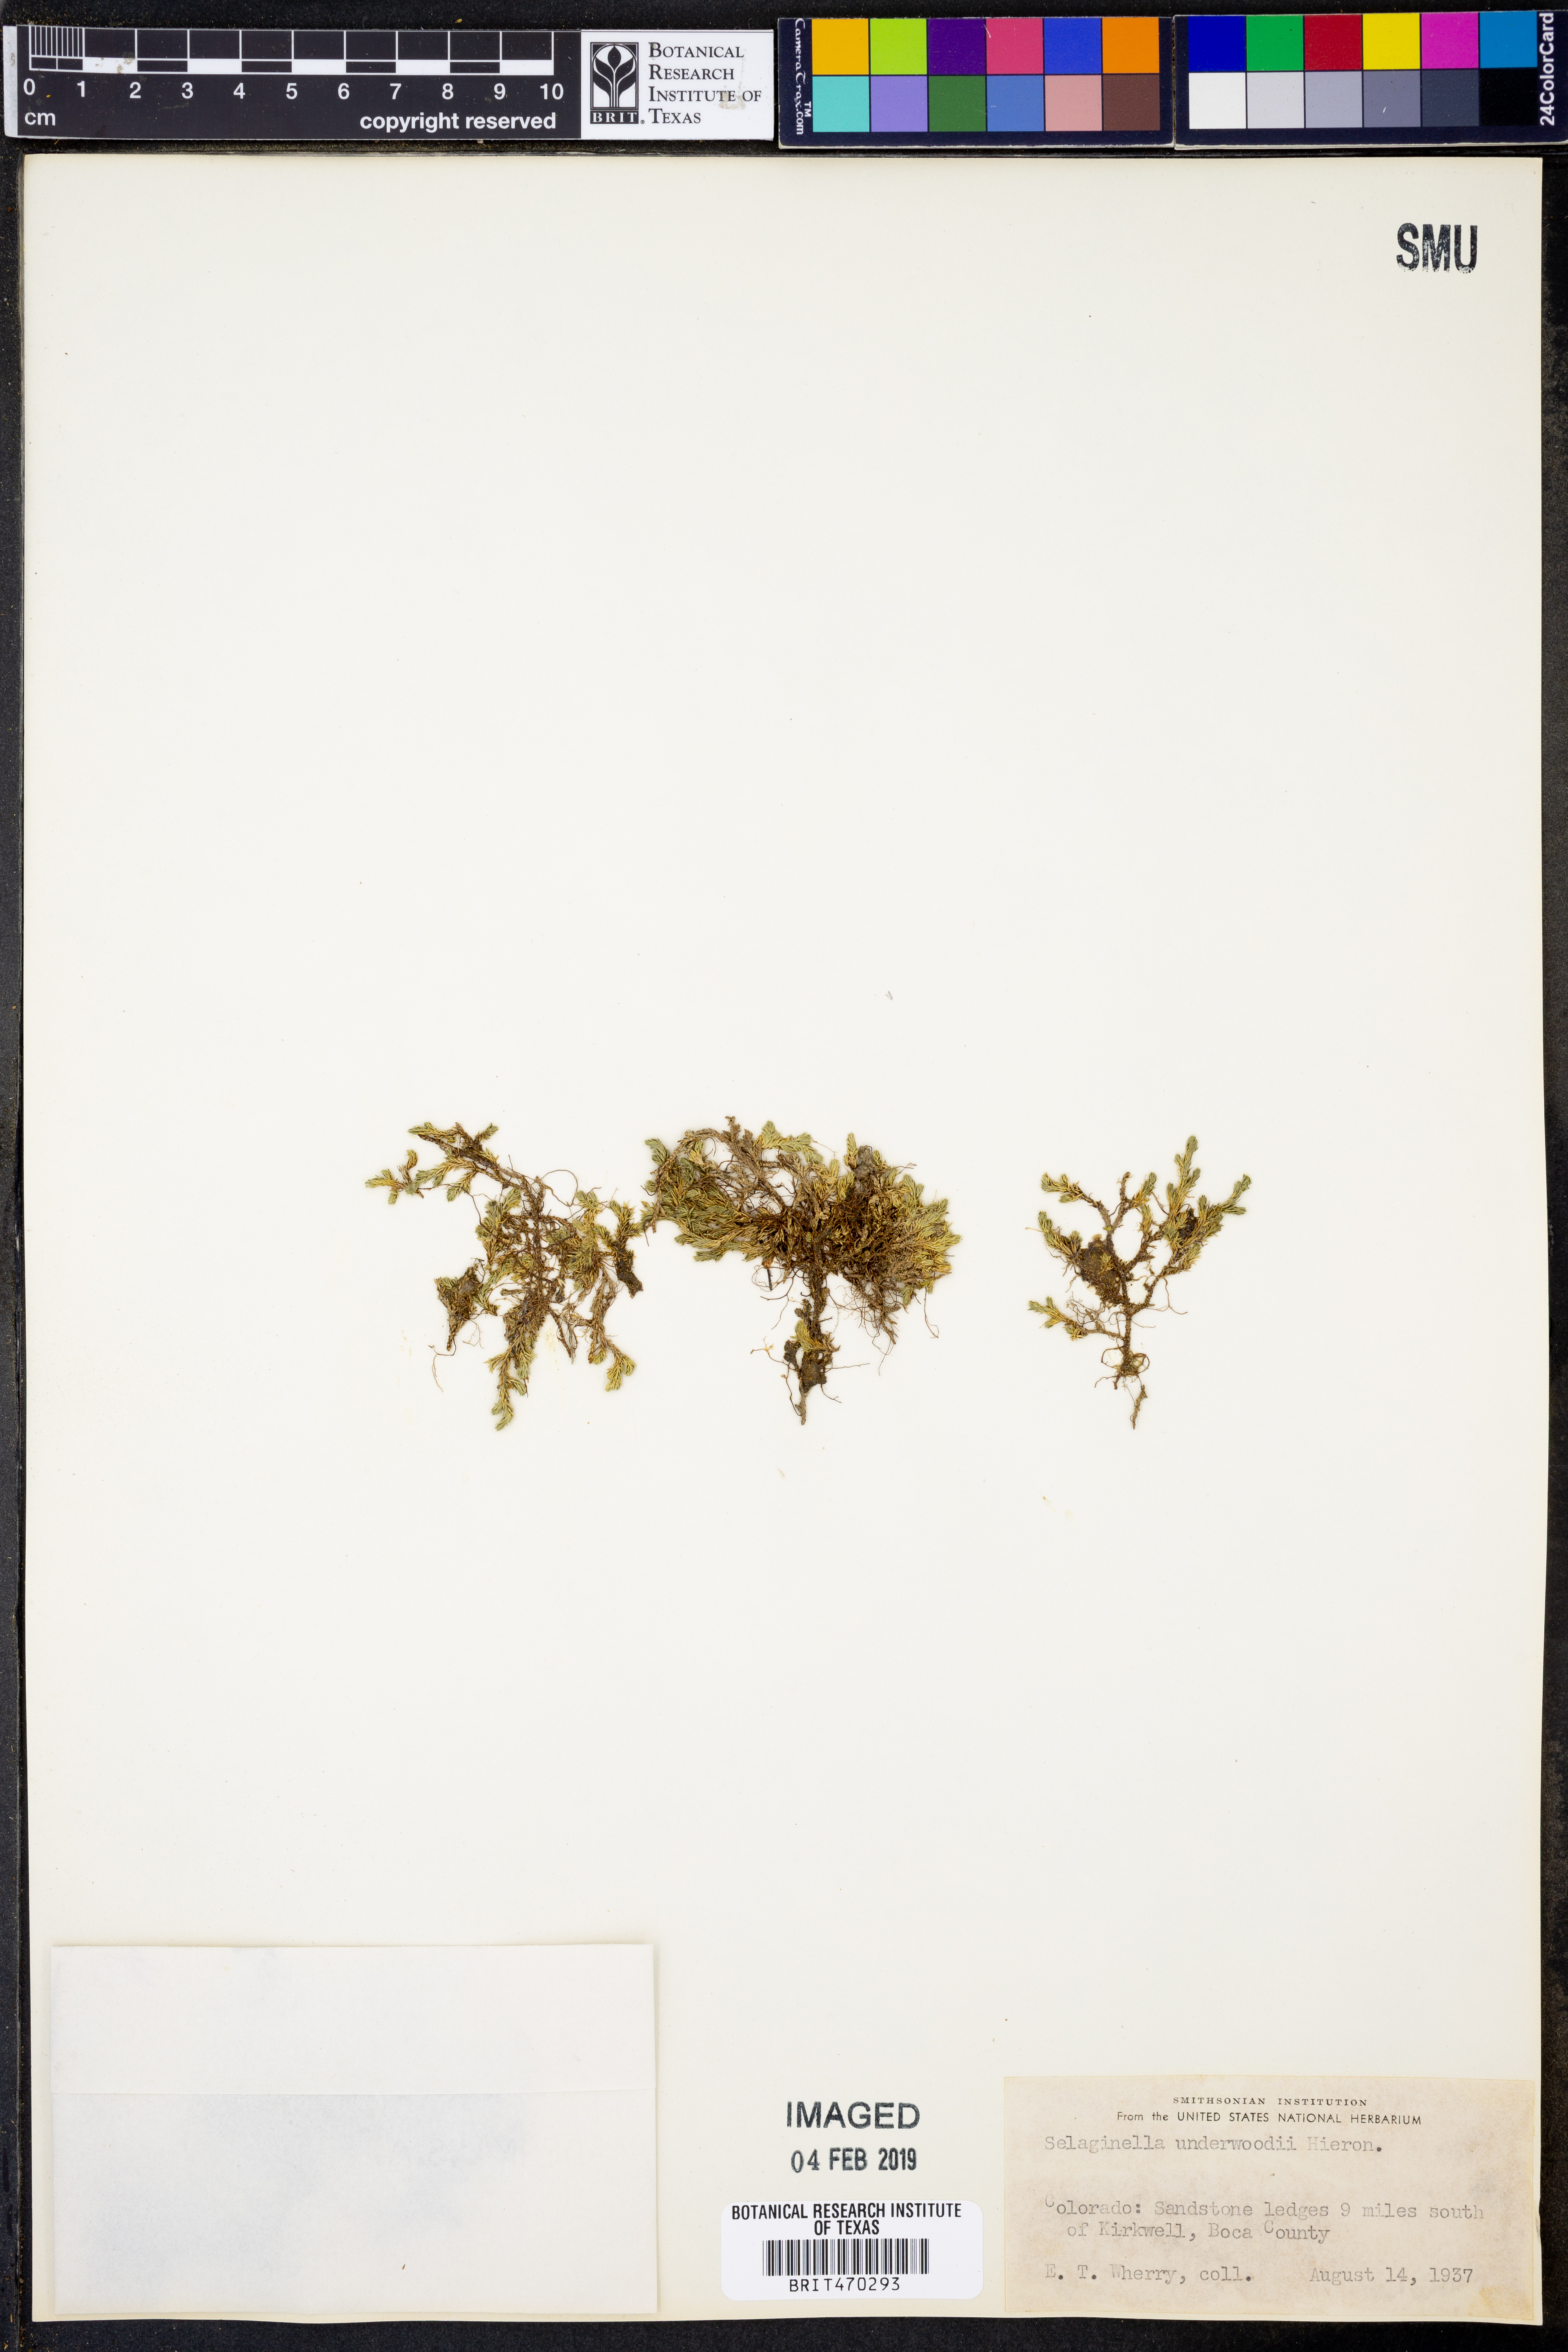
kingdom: Plantae
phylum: Tracheophyta
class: Lycopodiopsida
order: Selaginellales
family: Selaginellaceae
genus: Selaginella
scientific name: Selaginella underwoodii
